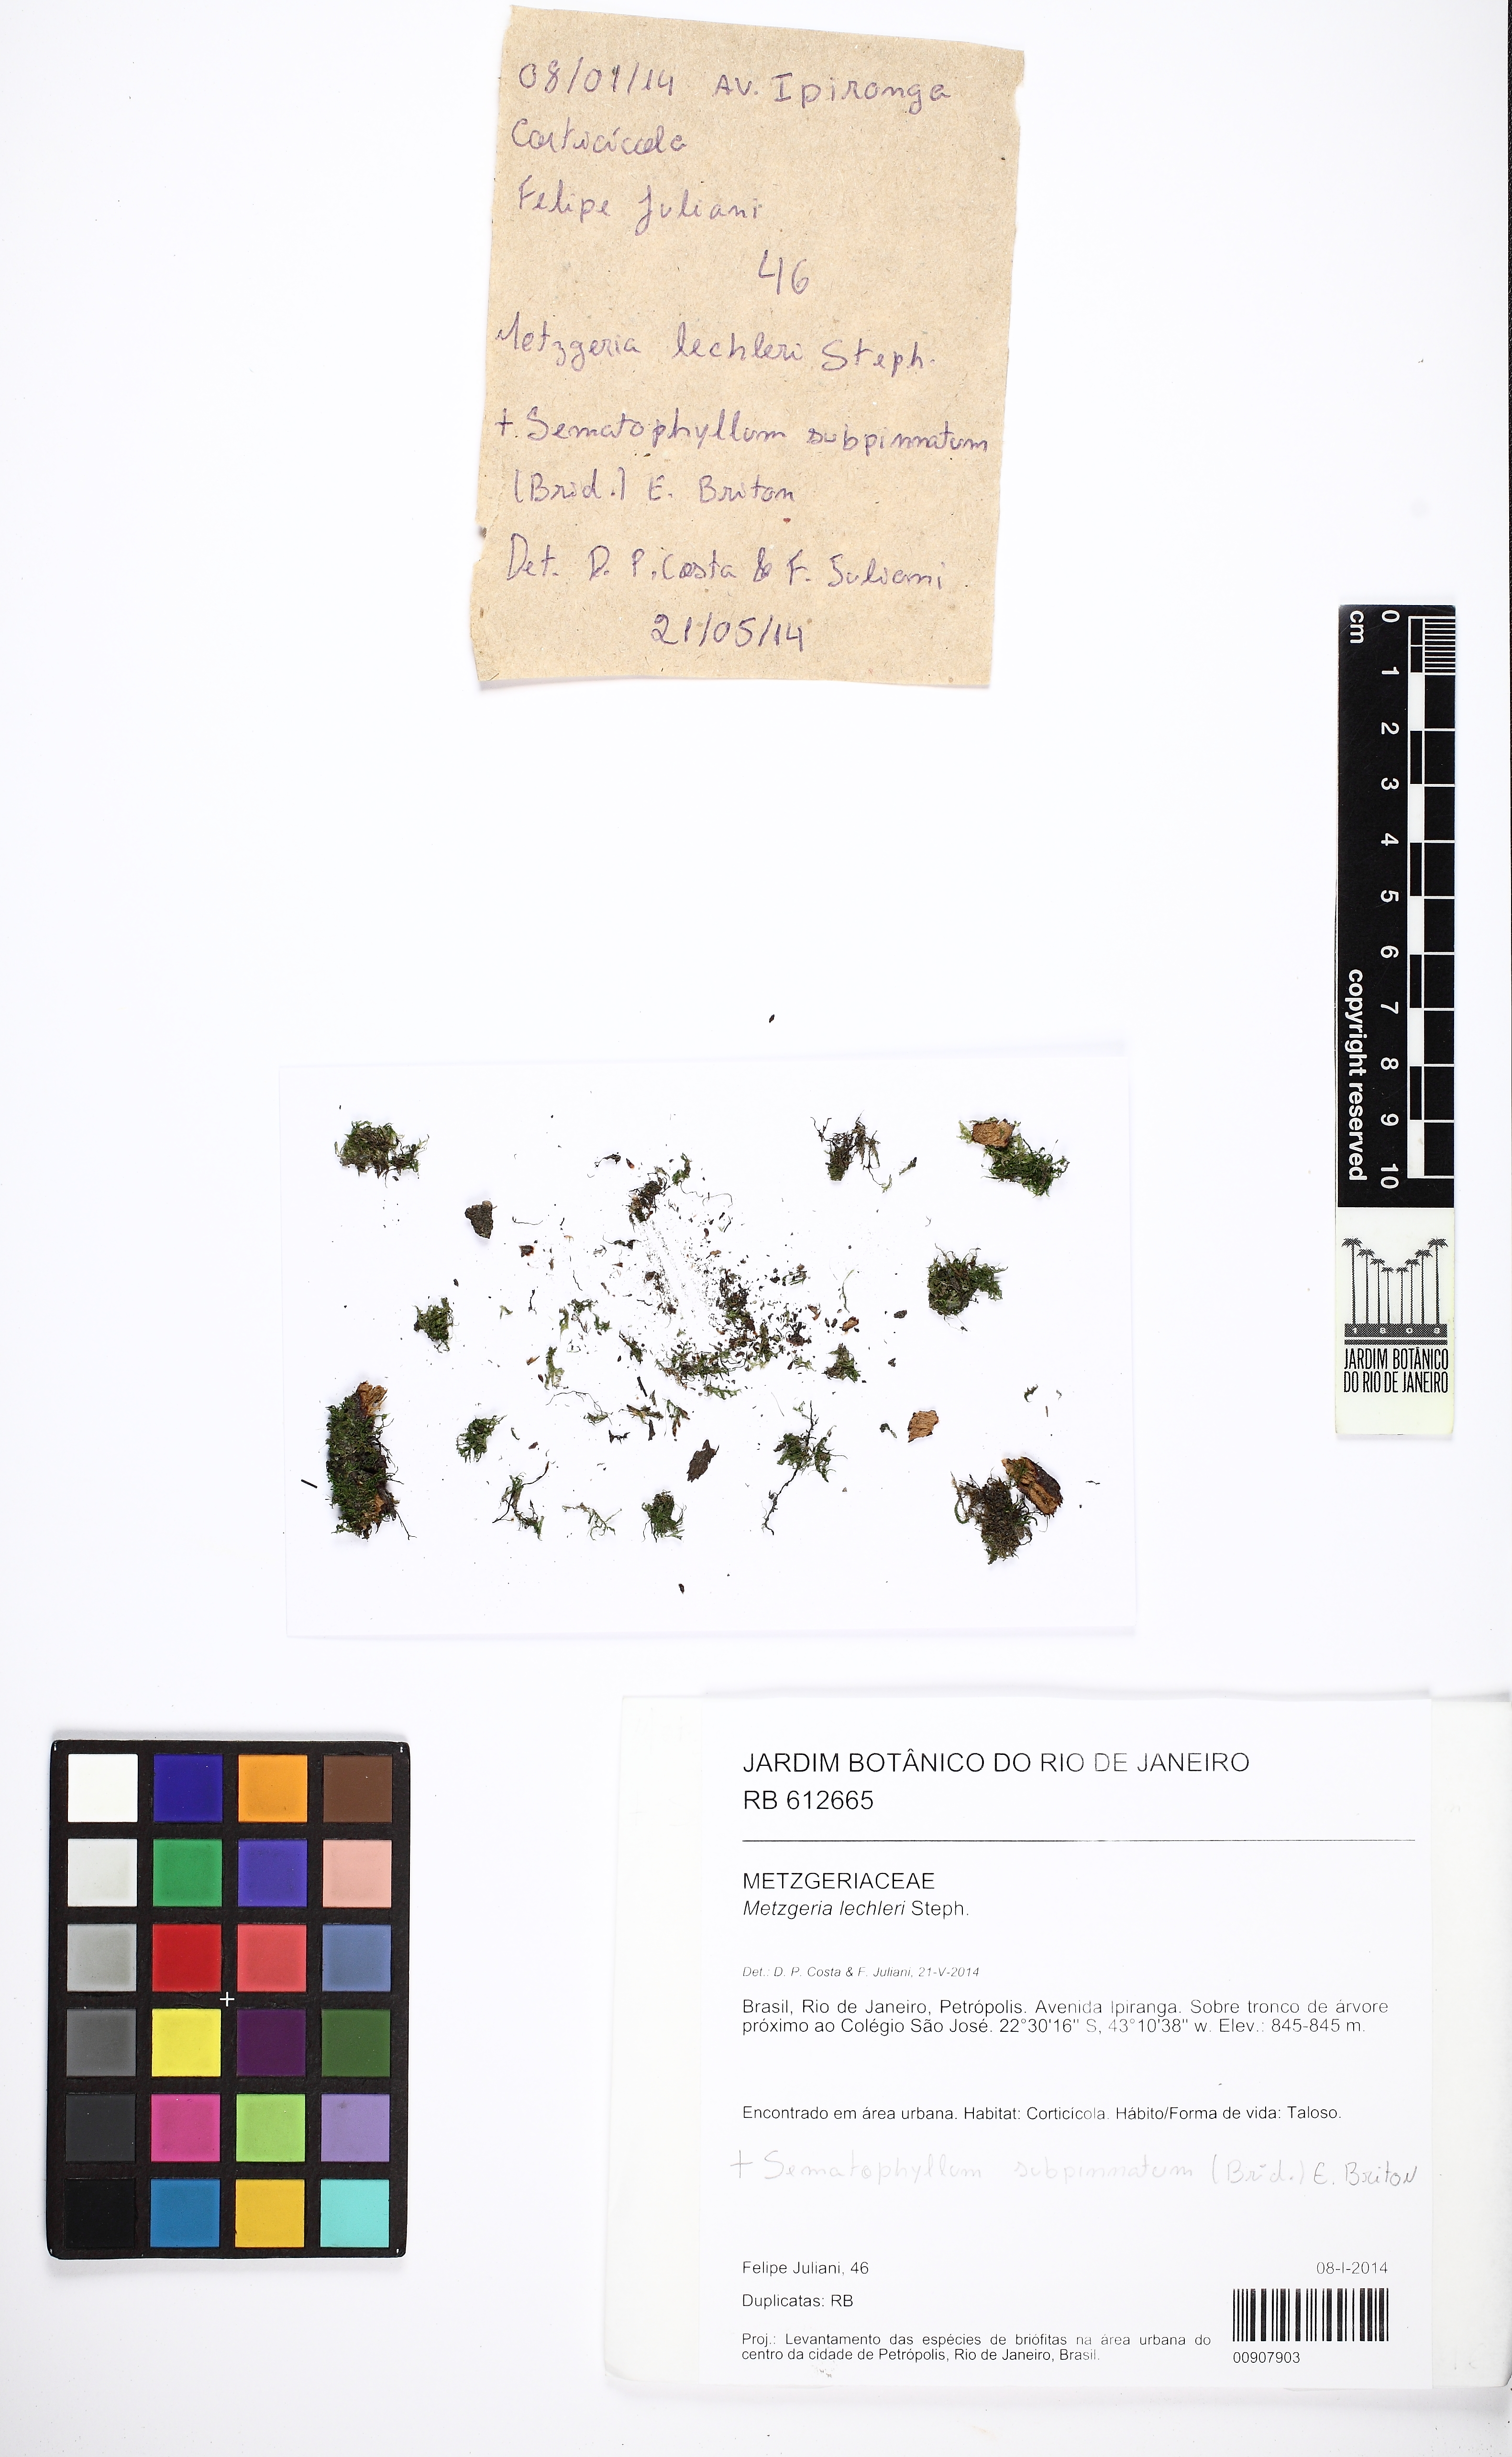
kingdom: Plantae
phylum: Marchantiophyta
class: Jungermanniopsida
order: Metzgeriales
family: Metzgeriaceae
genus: Metzgeria
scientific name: Metzgeria lechleri
